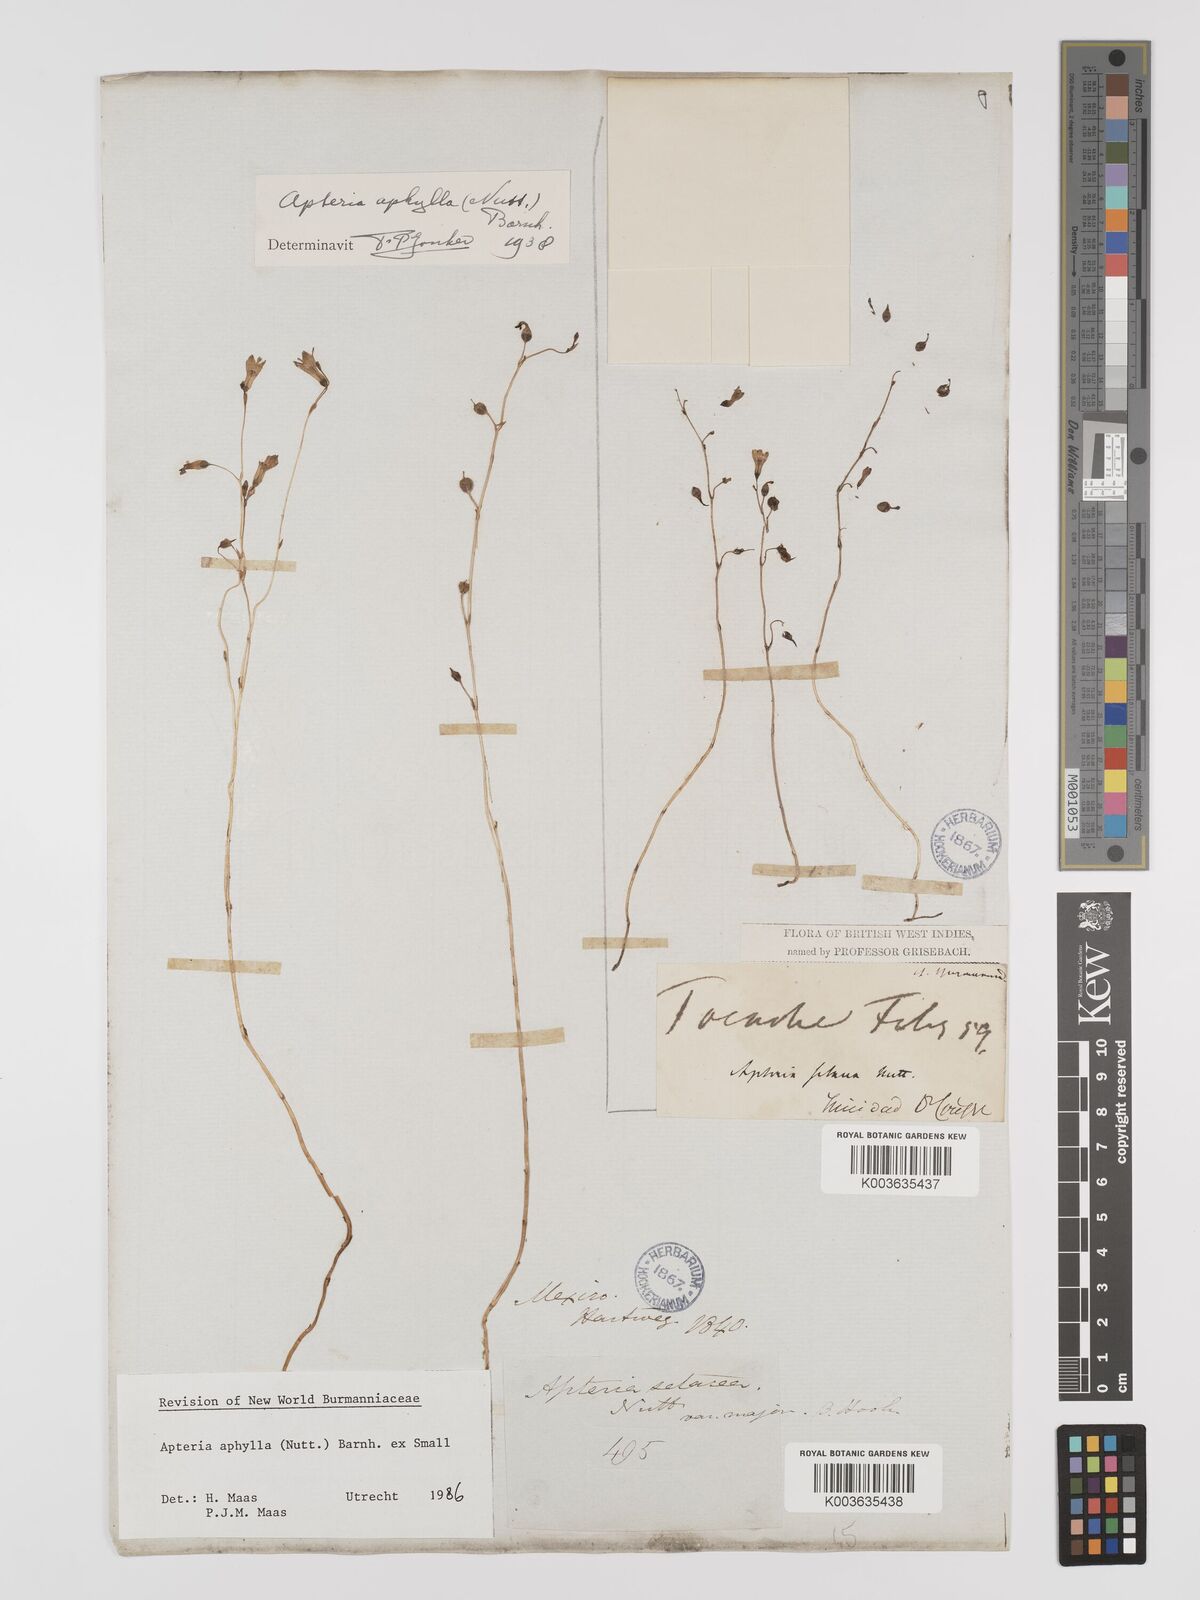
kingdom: Plantae
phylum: Tracheophyta
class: Liliopsida
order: Dioscoreales
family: Burmanniaceae
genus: Apteria
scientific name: Apteria aphylla
